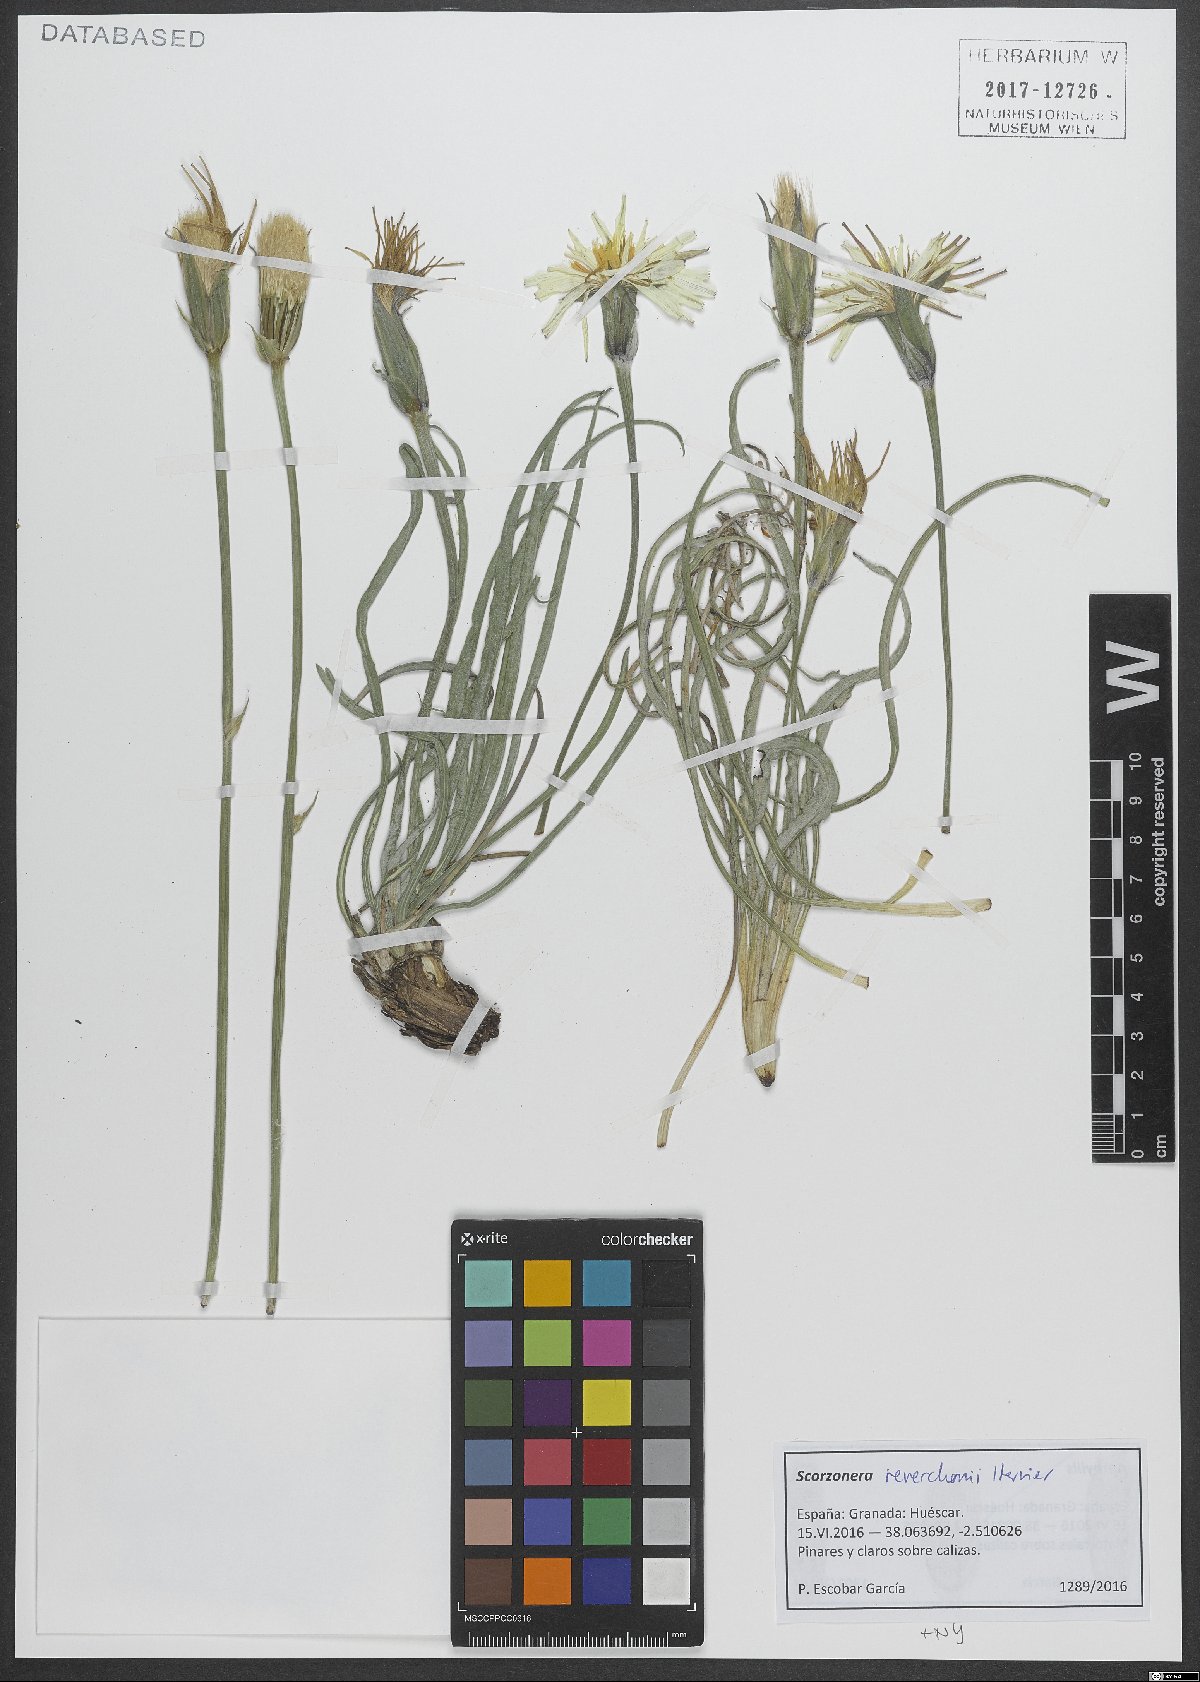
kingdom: Plantae
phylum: Tracheophyta
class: Magnoliopsida
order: Asterales
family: Asteraceae
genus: Pseudopodospermum
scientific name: Pseudopodospermum reverchonii
